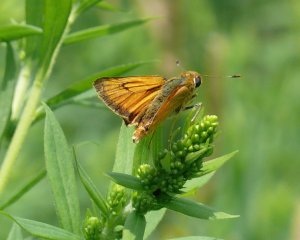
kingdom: Animalia
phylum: Arthropoda
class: Insecta
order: Lepidoptera
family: Hesperiidae
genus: Atrytone
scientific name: Atrytone delaware
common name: Delaware Skipper
